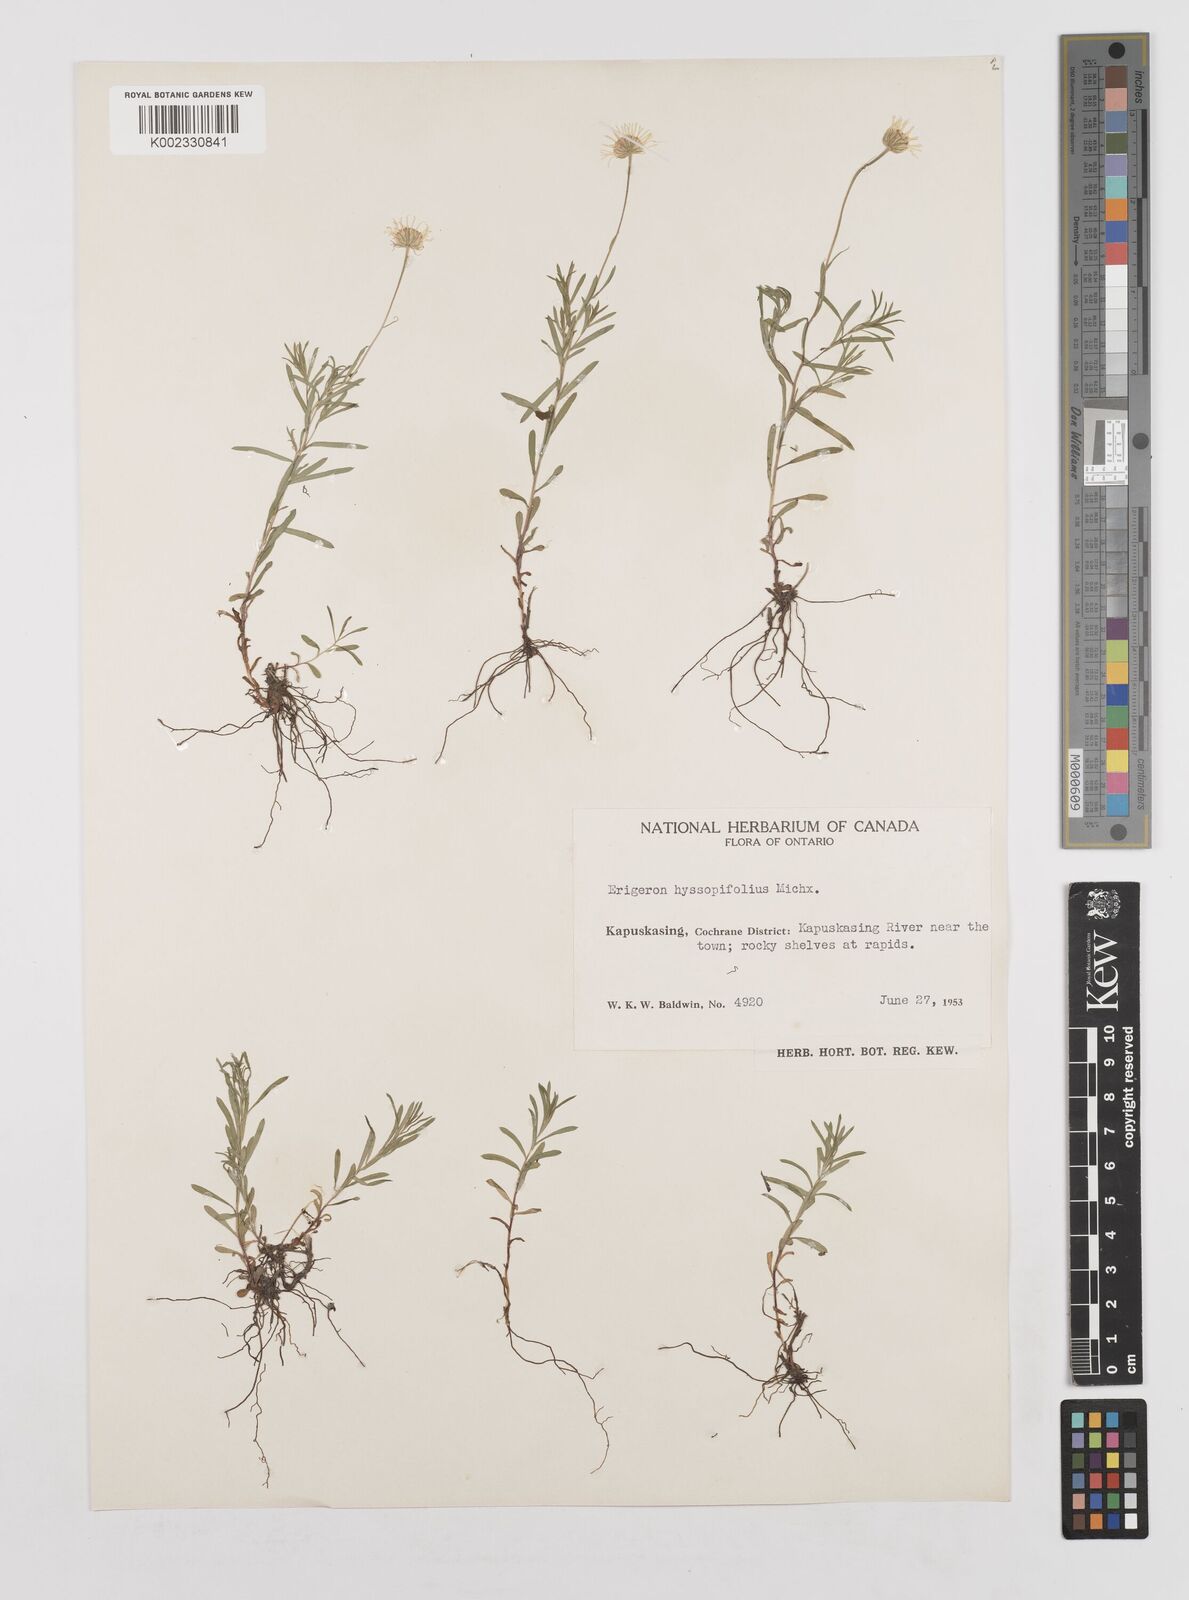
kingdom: Plantae
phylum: Tracheophyta
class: Magnoliopsida
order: Asterales
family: Asteraceae
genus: Erigeron
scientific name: Erigeron hyssopifolius
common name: Daisy fleabane
